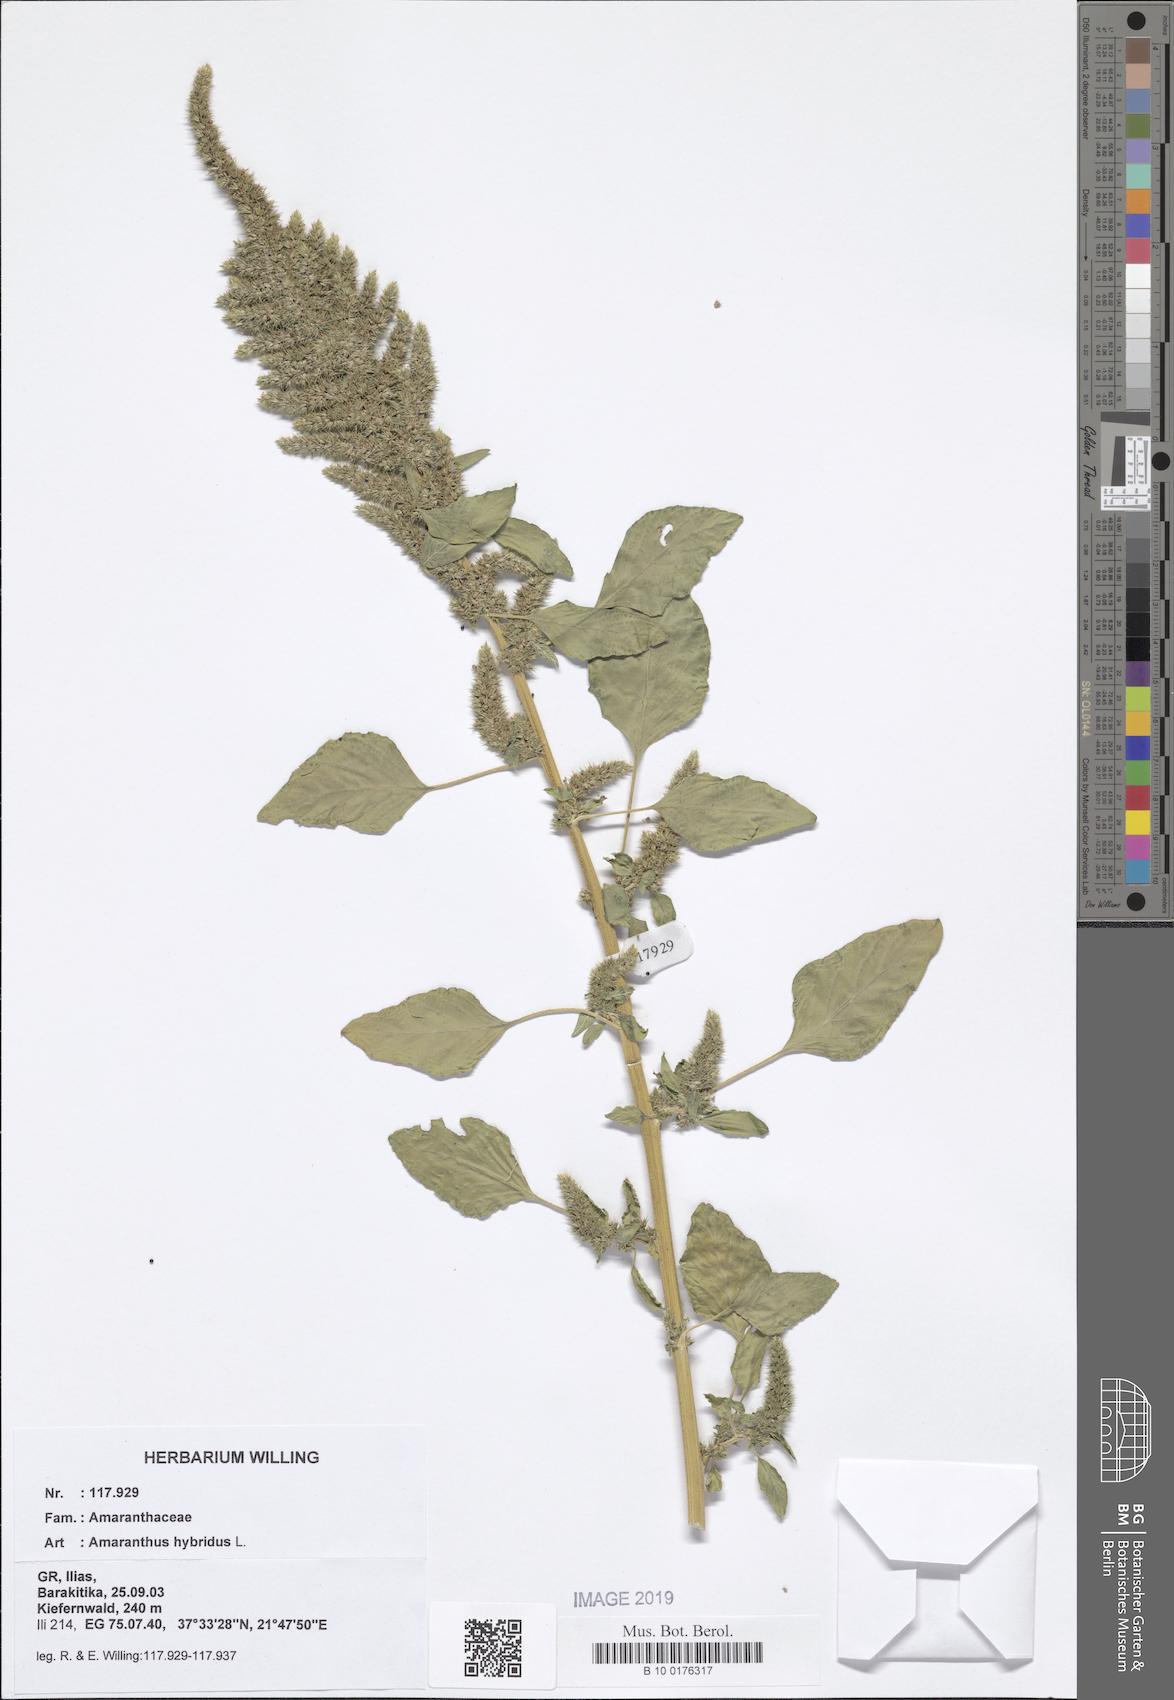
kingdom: Plantae
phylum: Tracheophyta
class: Magnoliopsida
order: Caryophyllales
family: Amaranthaceae
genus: Amaranthus
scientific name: Amaranthus hybridus
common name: Green amaranth
